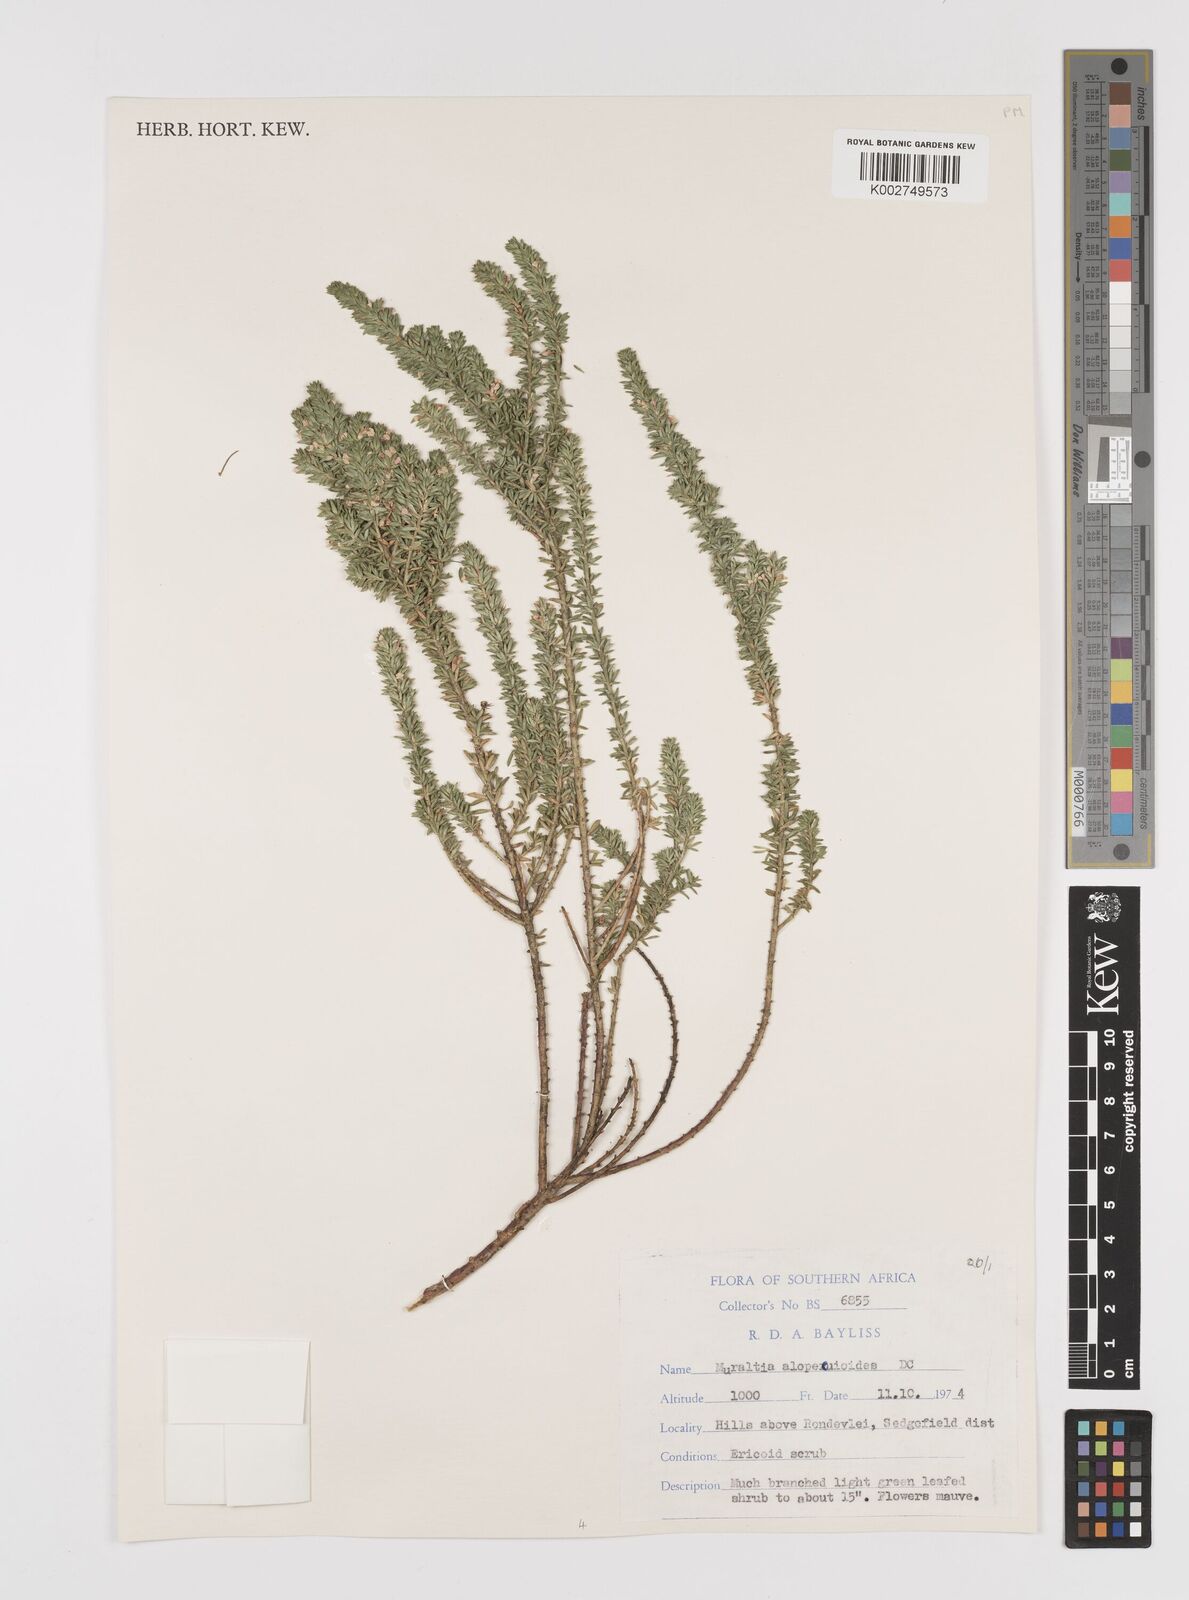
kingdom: Plantae
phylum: Tracheophyta
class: Magnoliopsida
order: Fabales
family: Polygalaceae
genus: Muraltia
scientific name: Muraltia alopecuroides
